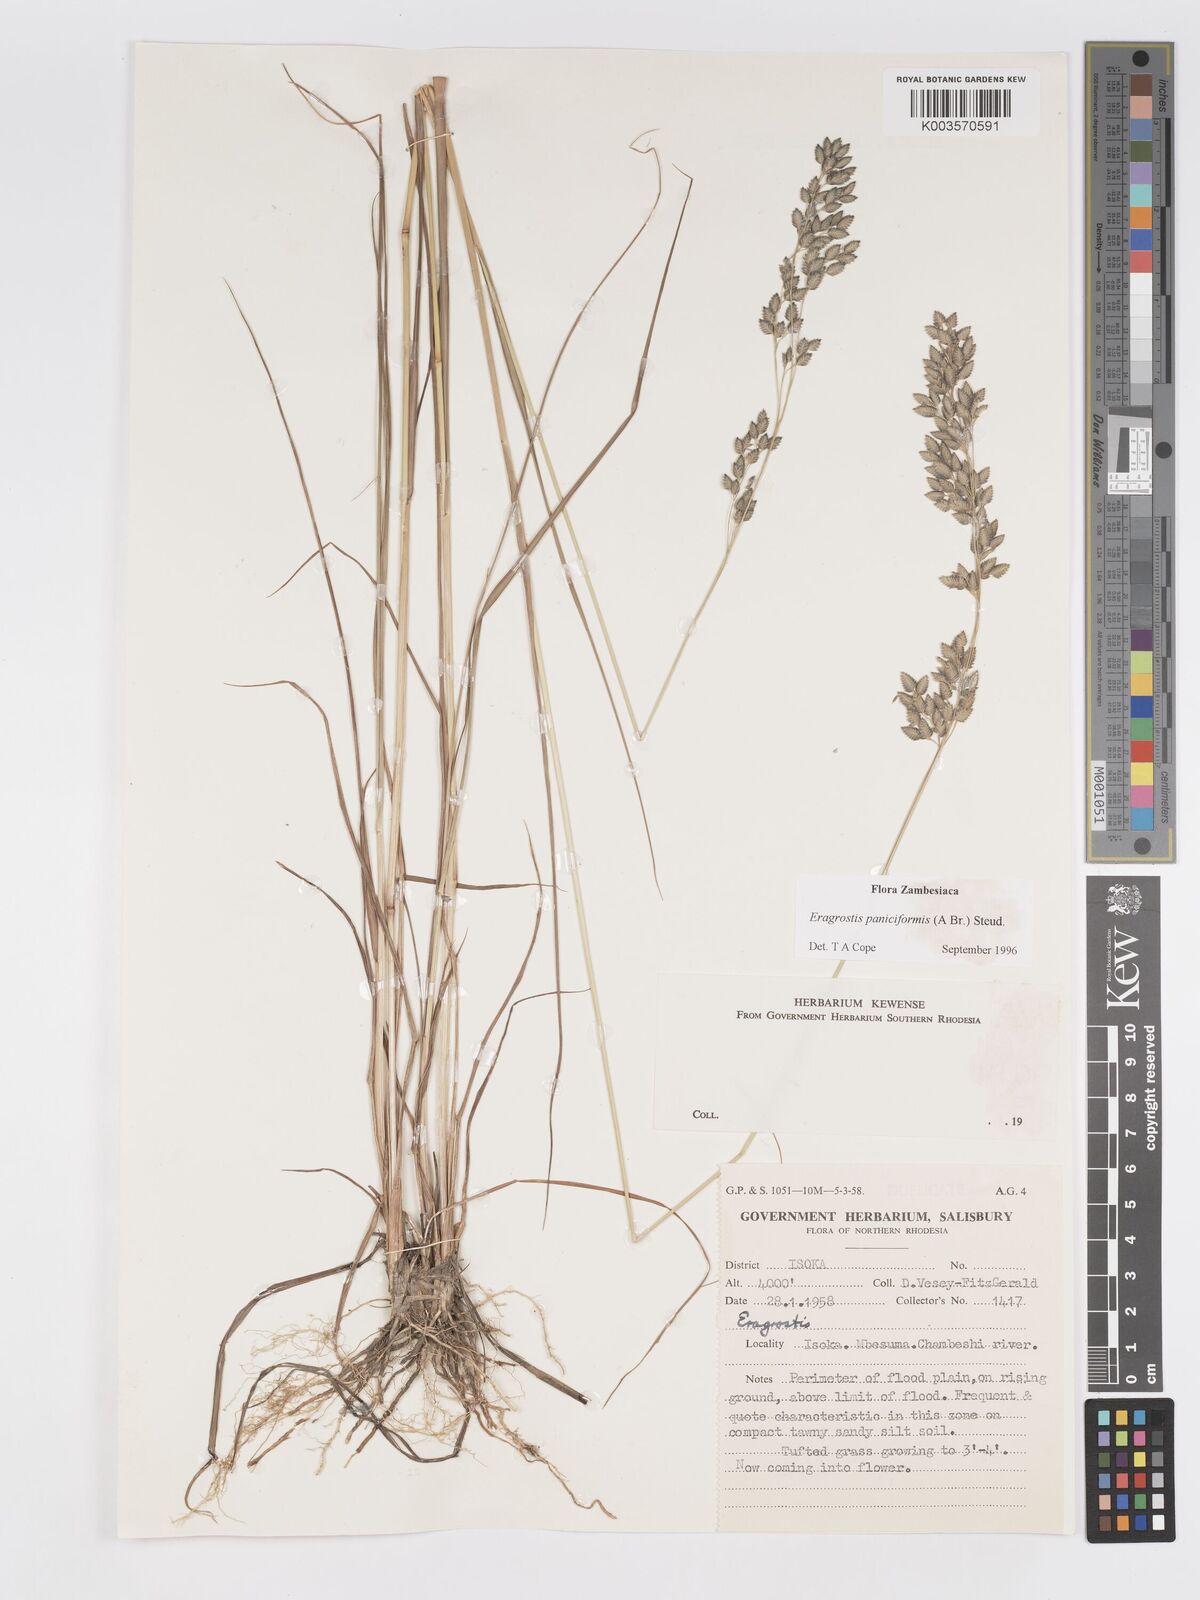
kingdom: Plantae
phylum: Tracheophyta
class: Liliopsida
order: Poales
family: Poaceae
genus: Eragrostis
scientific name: Eragrostis paniciformis
